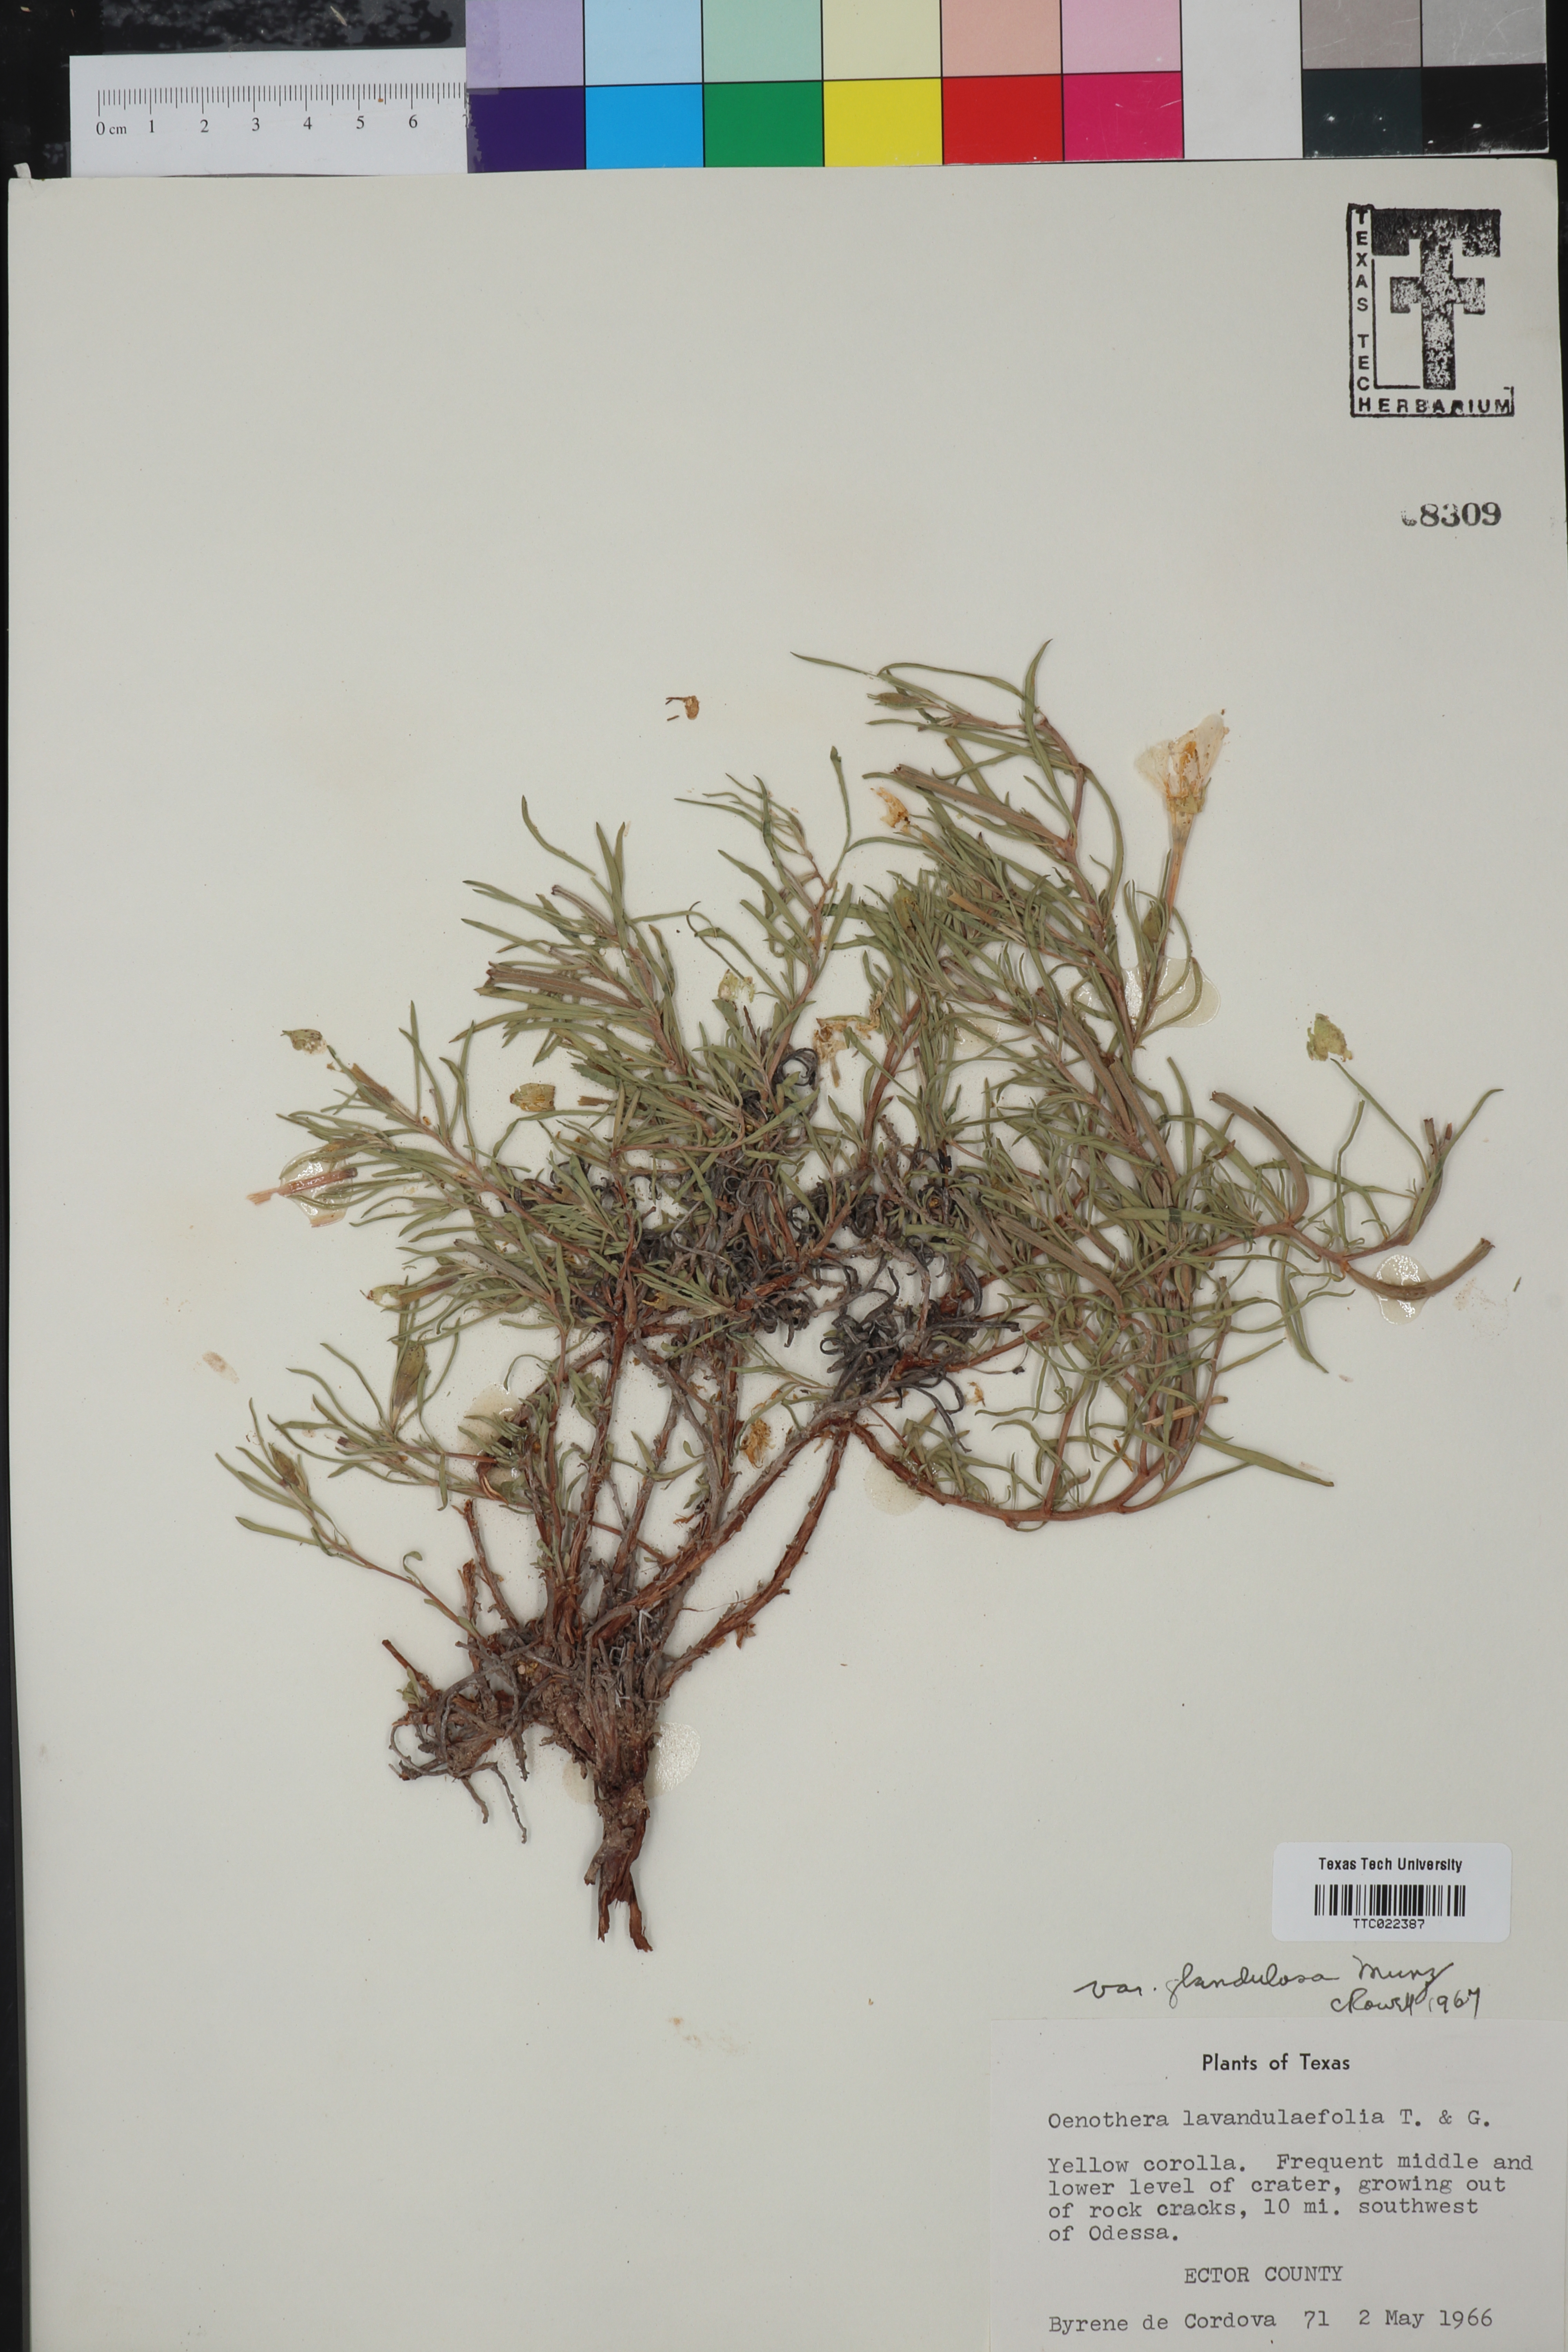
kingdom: Plantae
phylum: Tracheophyta
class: Magnoliopsida
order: Myrtales
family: Onagraceae
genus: Oenothera
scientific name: Oenothera lavandulifolia
